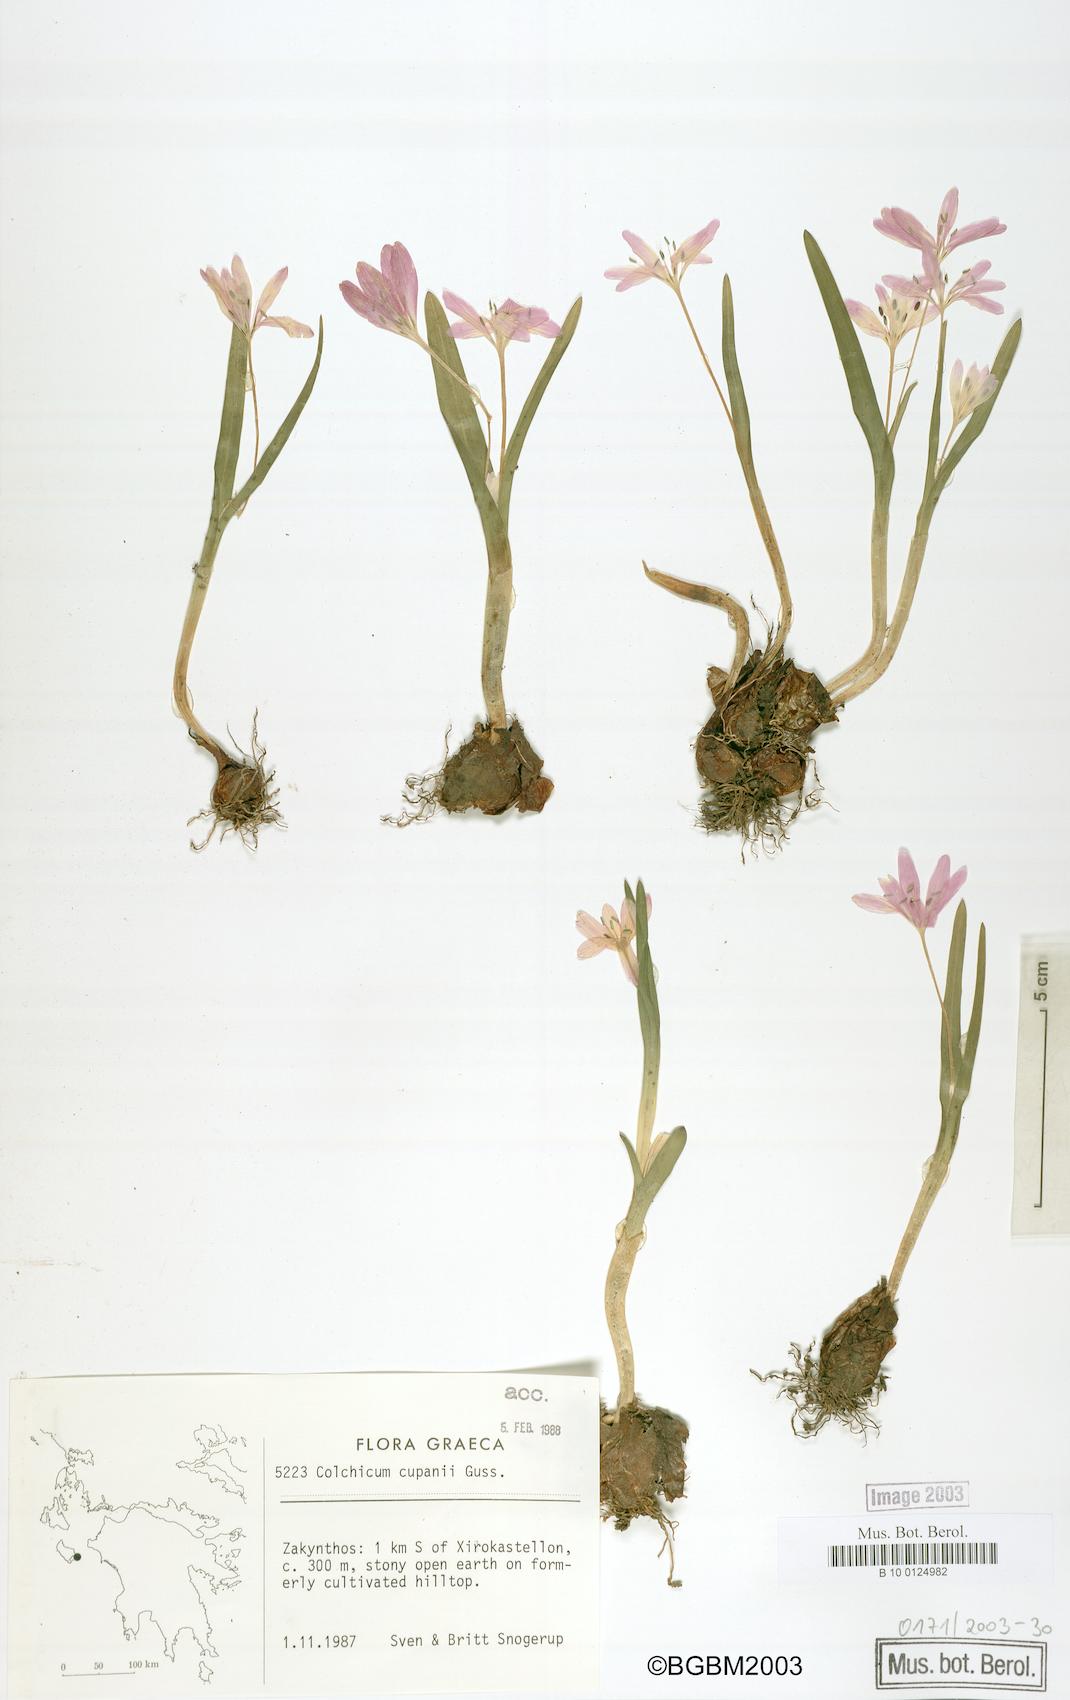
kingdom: Plantae
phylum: Tracheophyta
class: Liliopsida
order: Liliales
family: Colchicaceae
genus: Colchicum
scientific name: Colchicum cupanii
